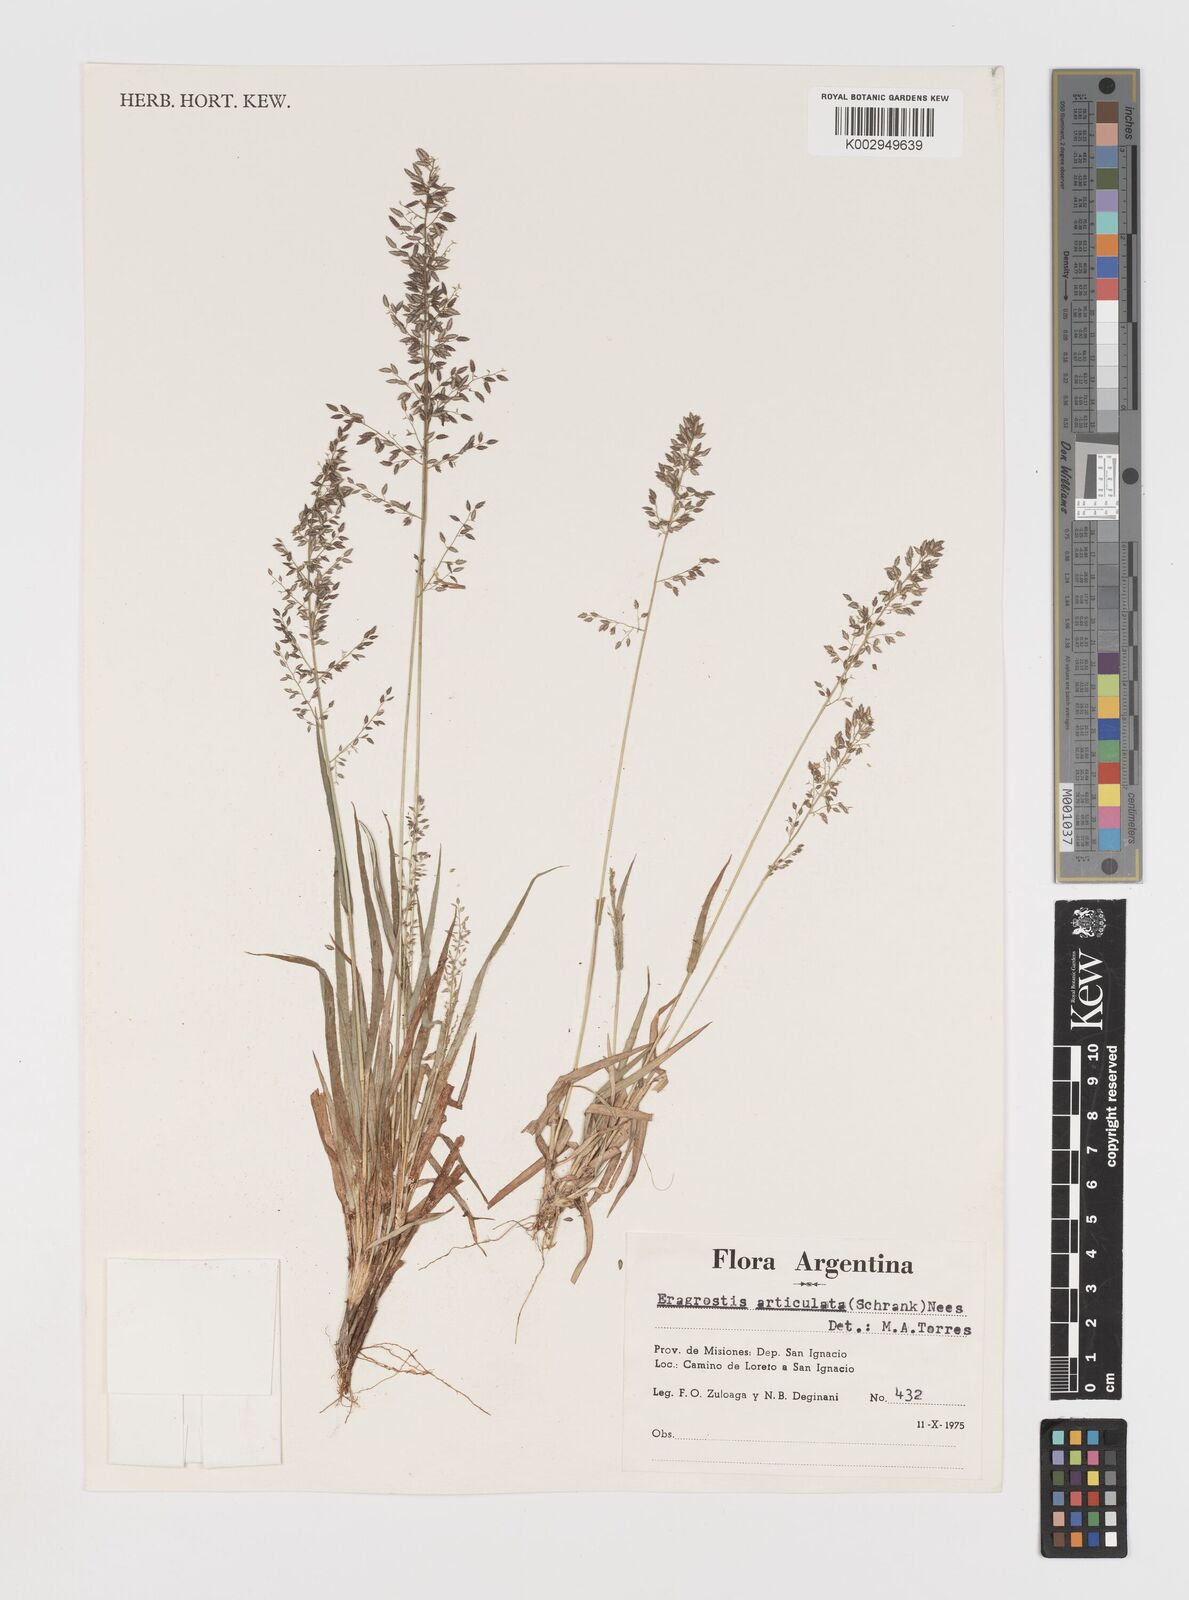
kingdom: Plantae
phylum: Tracheophyta
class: Liliopsida
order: Poales
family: Poaceae
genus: Eragrostis
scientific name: Eragrostis articulata
